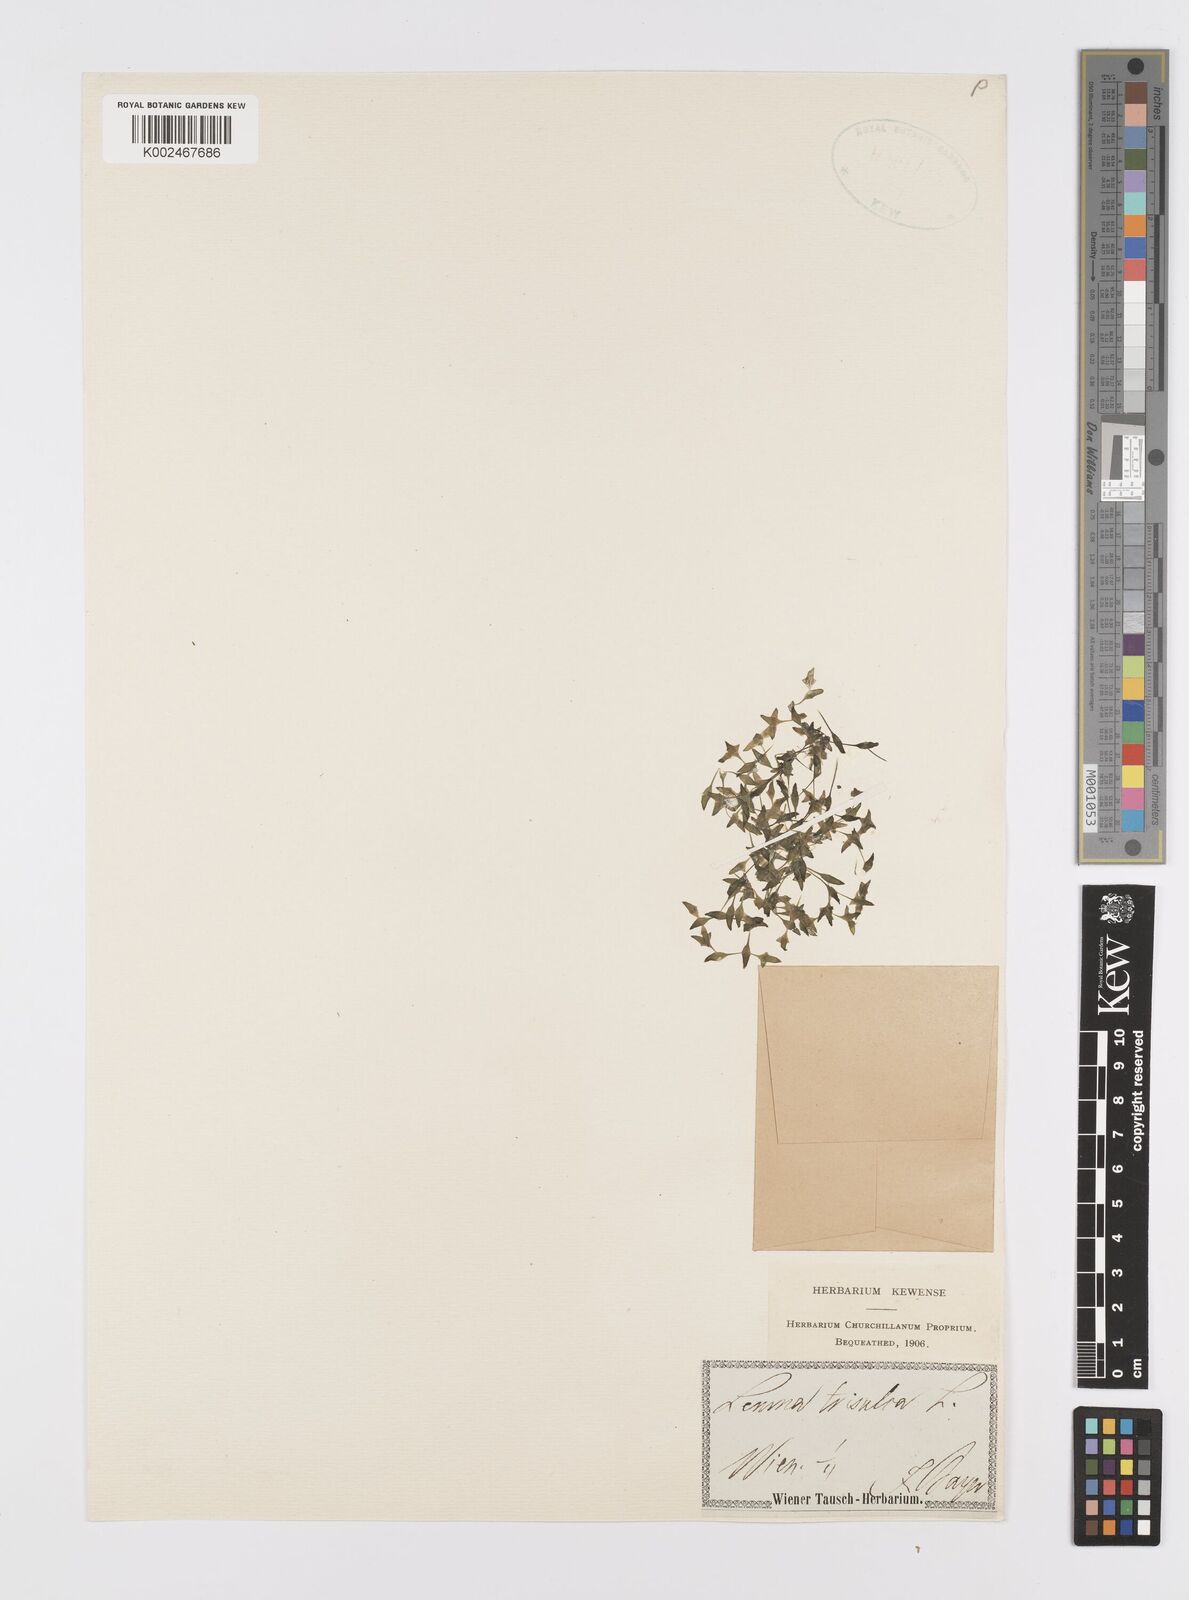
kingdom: Plantae
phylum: Tracheophyta
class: Liliopsida
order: Alismatales
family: Araceae
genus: Lemna
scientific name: Lemna trisulca
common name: Ivy-leaved duckweed
